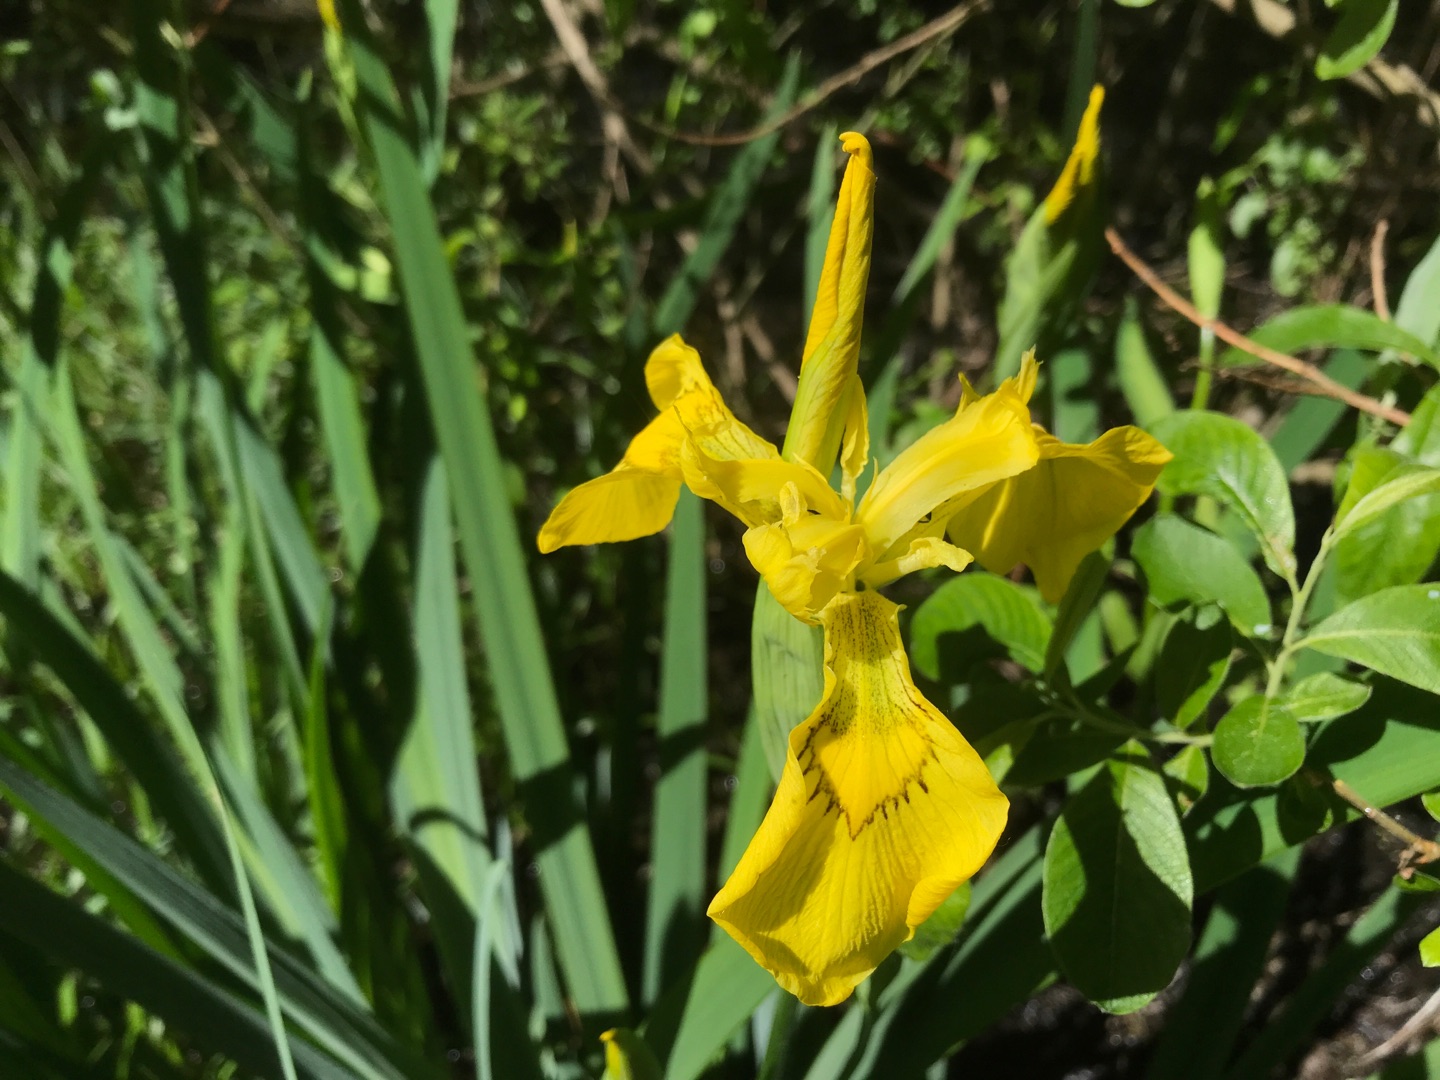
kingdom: Plantae
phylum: Tracheophyta
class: Liliopsida
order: Asparagales
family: Iridaceae
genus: Iris
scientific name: Iris pseudacorus
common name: Gul iris
